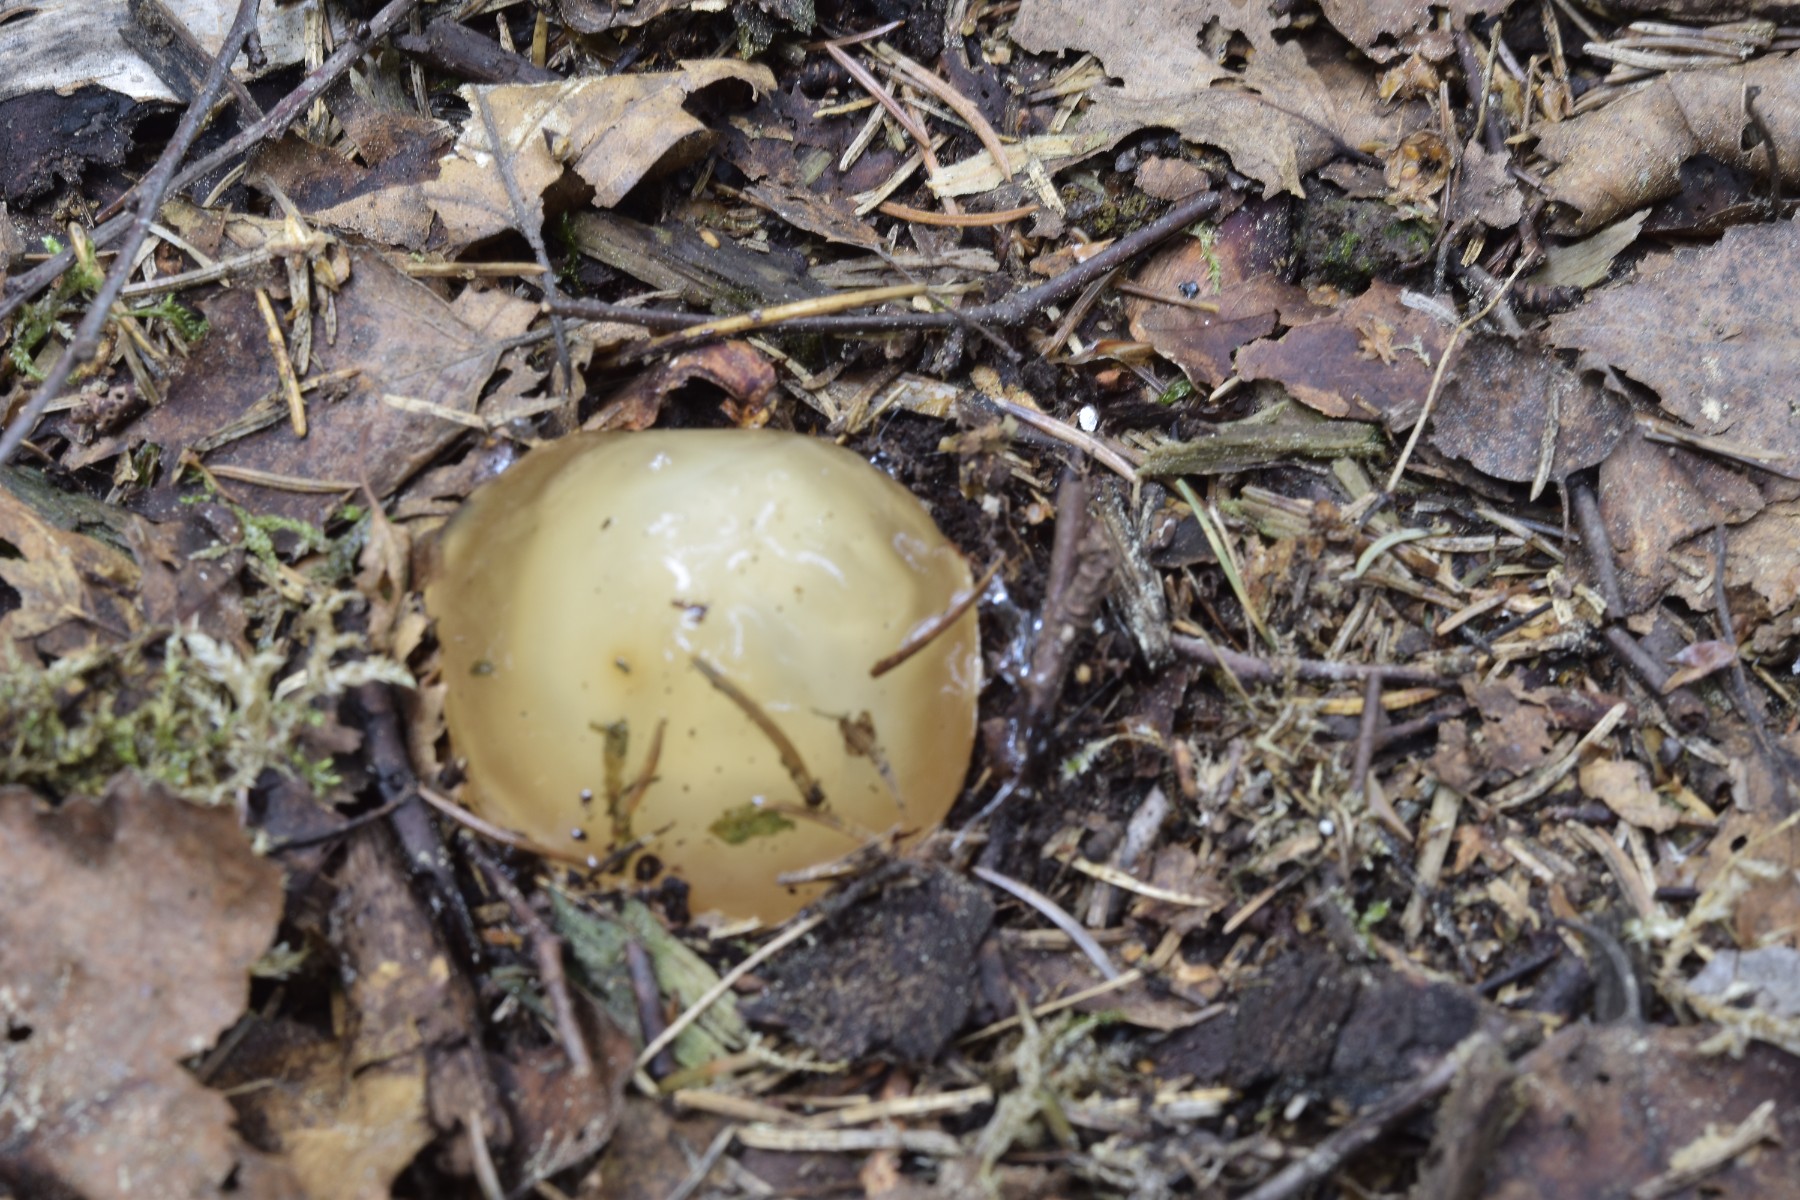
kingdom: Fungi
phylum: Basidiomycota
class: Agaricomycetes
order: Phallales
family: Phallaceae
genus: Phallus
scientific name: Phallus impudicus
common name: almindelig stinksvamp
